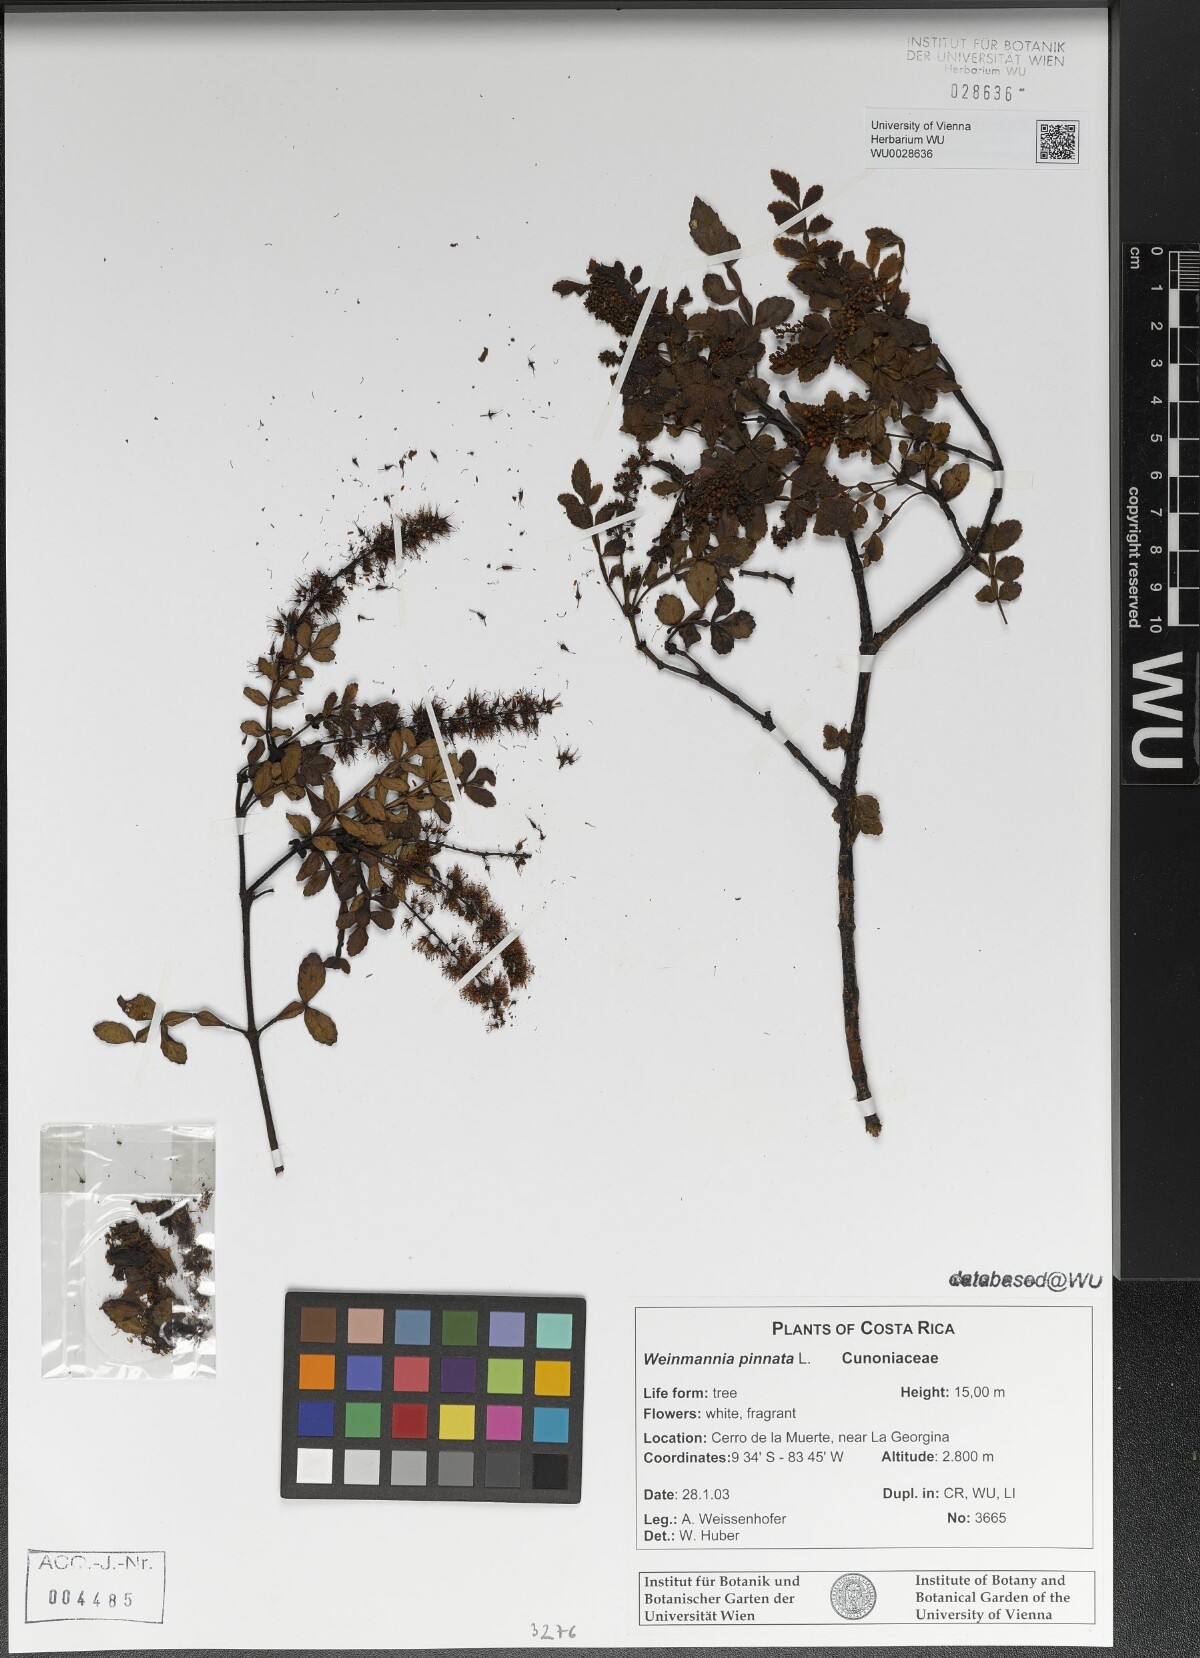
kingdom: Plantae
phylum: Tracheophyta
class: Magnoliopsida
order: Oxalidales
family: Cunoniaceae
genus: Weinmannia
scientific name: Weinmannia pinnata
